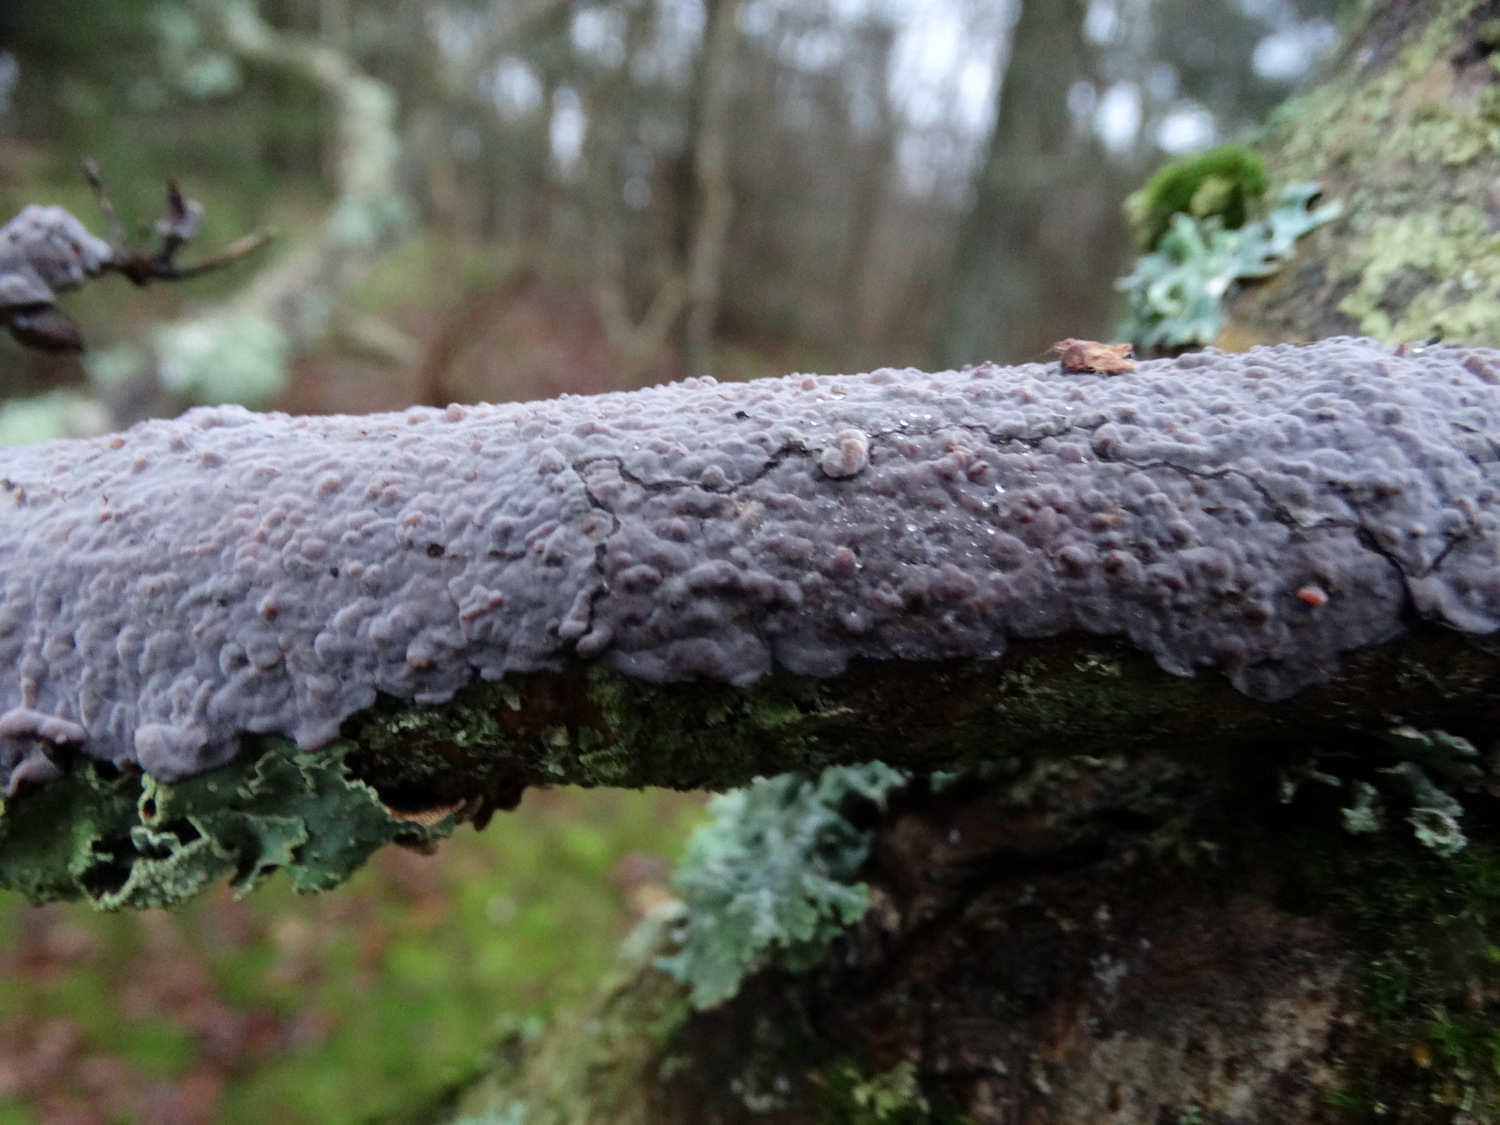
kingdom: Fungi
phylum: Basidiomycota
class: Agaricomycetes
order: Russulales
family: Peniophoraceae
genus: Peniophora
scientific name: Peniophora quercina
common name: ege-voksskind
